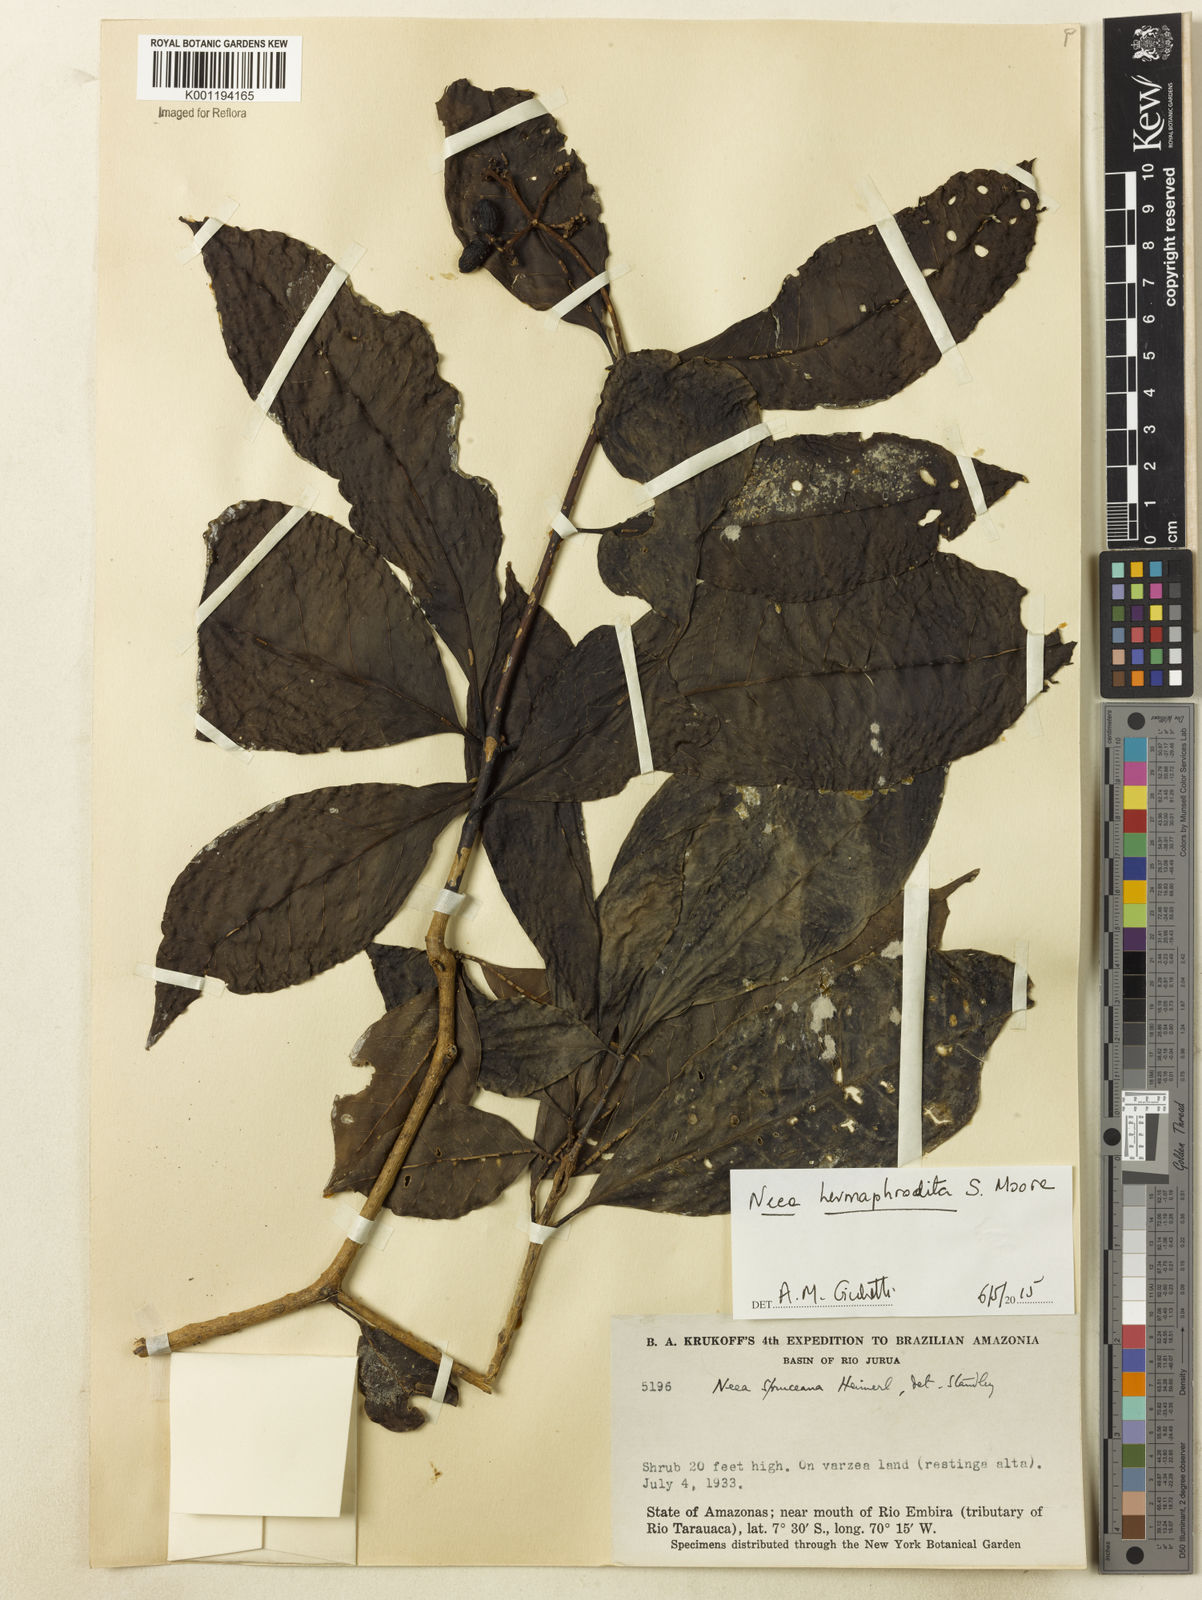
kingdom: Plantae
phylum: Tracheophyta
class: Magnoliopsida
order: Caryophyllales
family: Nyctaginaceae
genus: Neea
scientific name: Neea hermaphrodita
